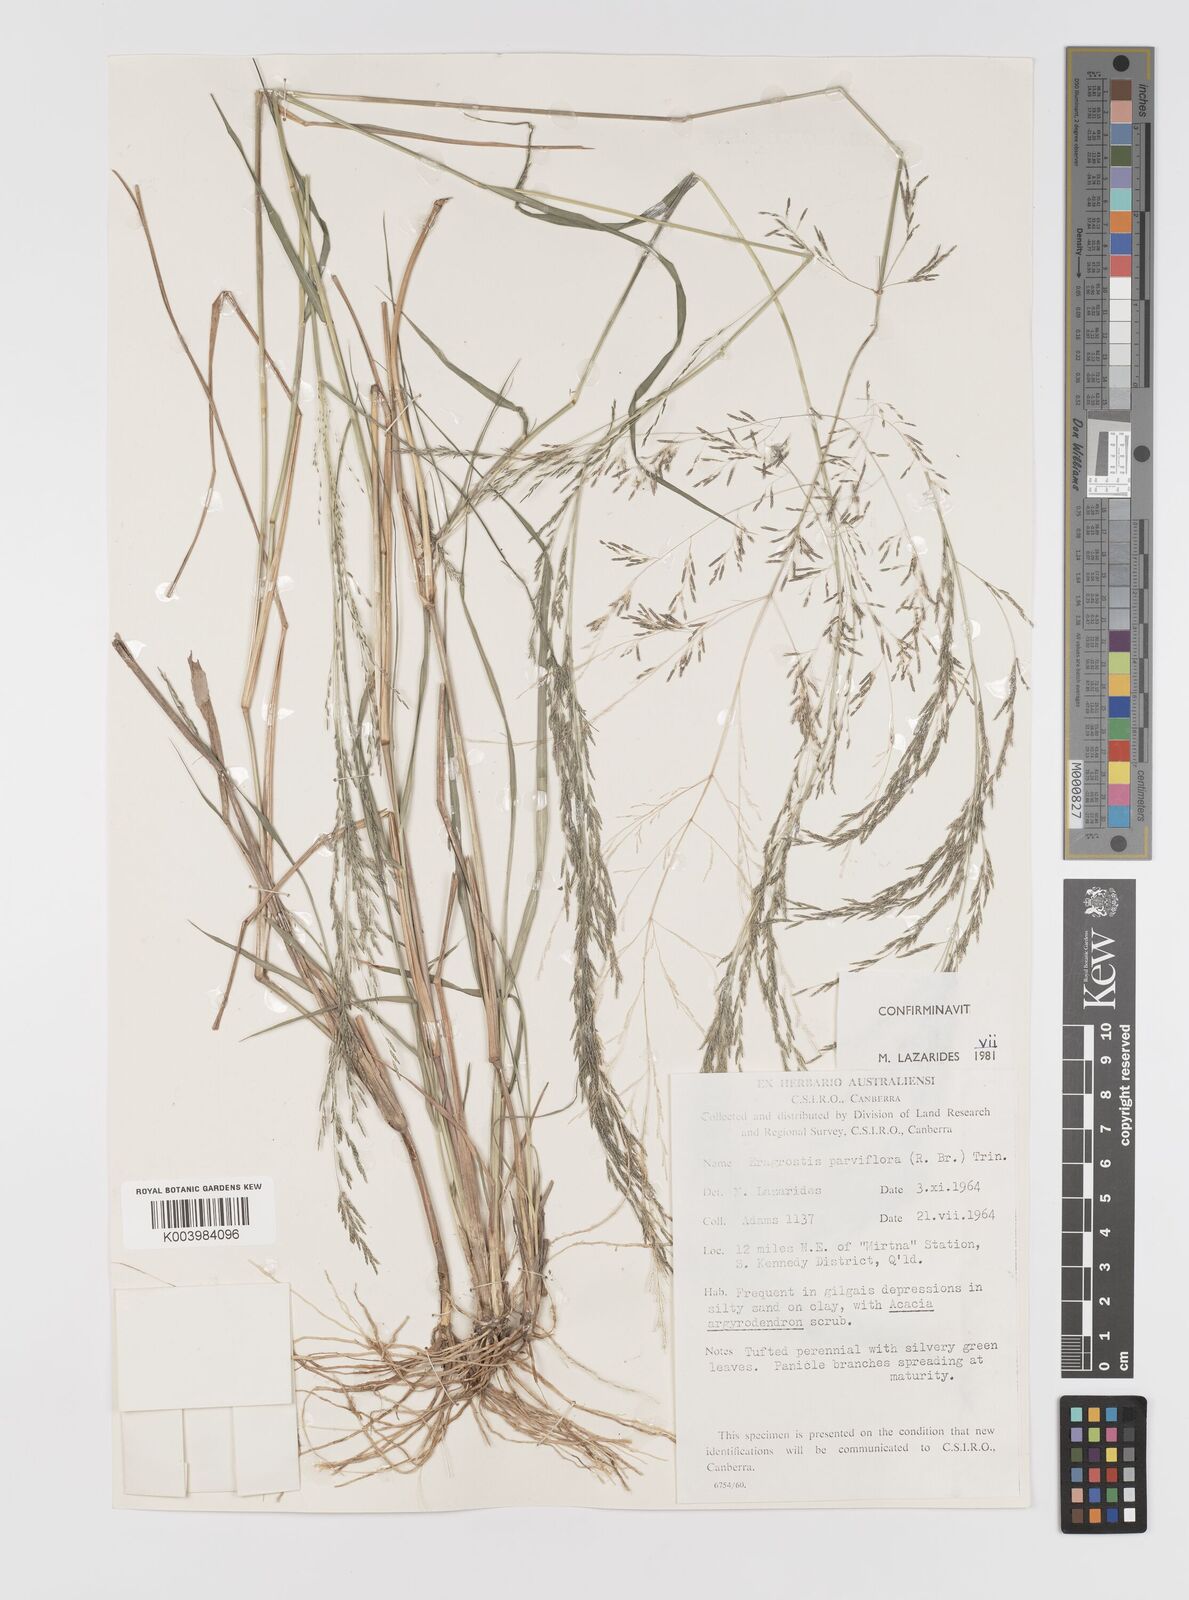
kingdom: Plantae
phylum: Tracheophyta
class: Liliopsida
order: Poales
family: Poaceae
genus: Eragrostis
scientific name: Eragrostis parviflora
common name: Weeping love-grass
